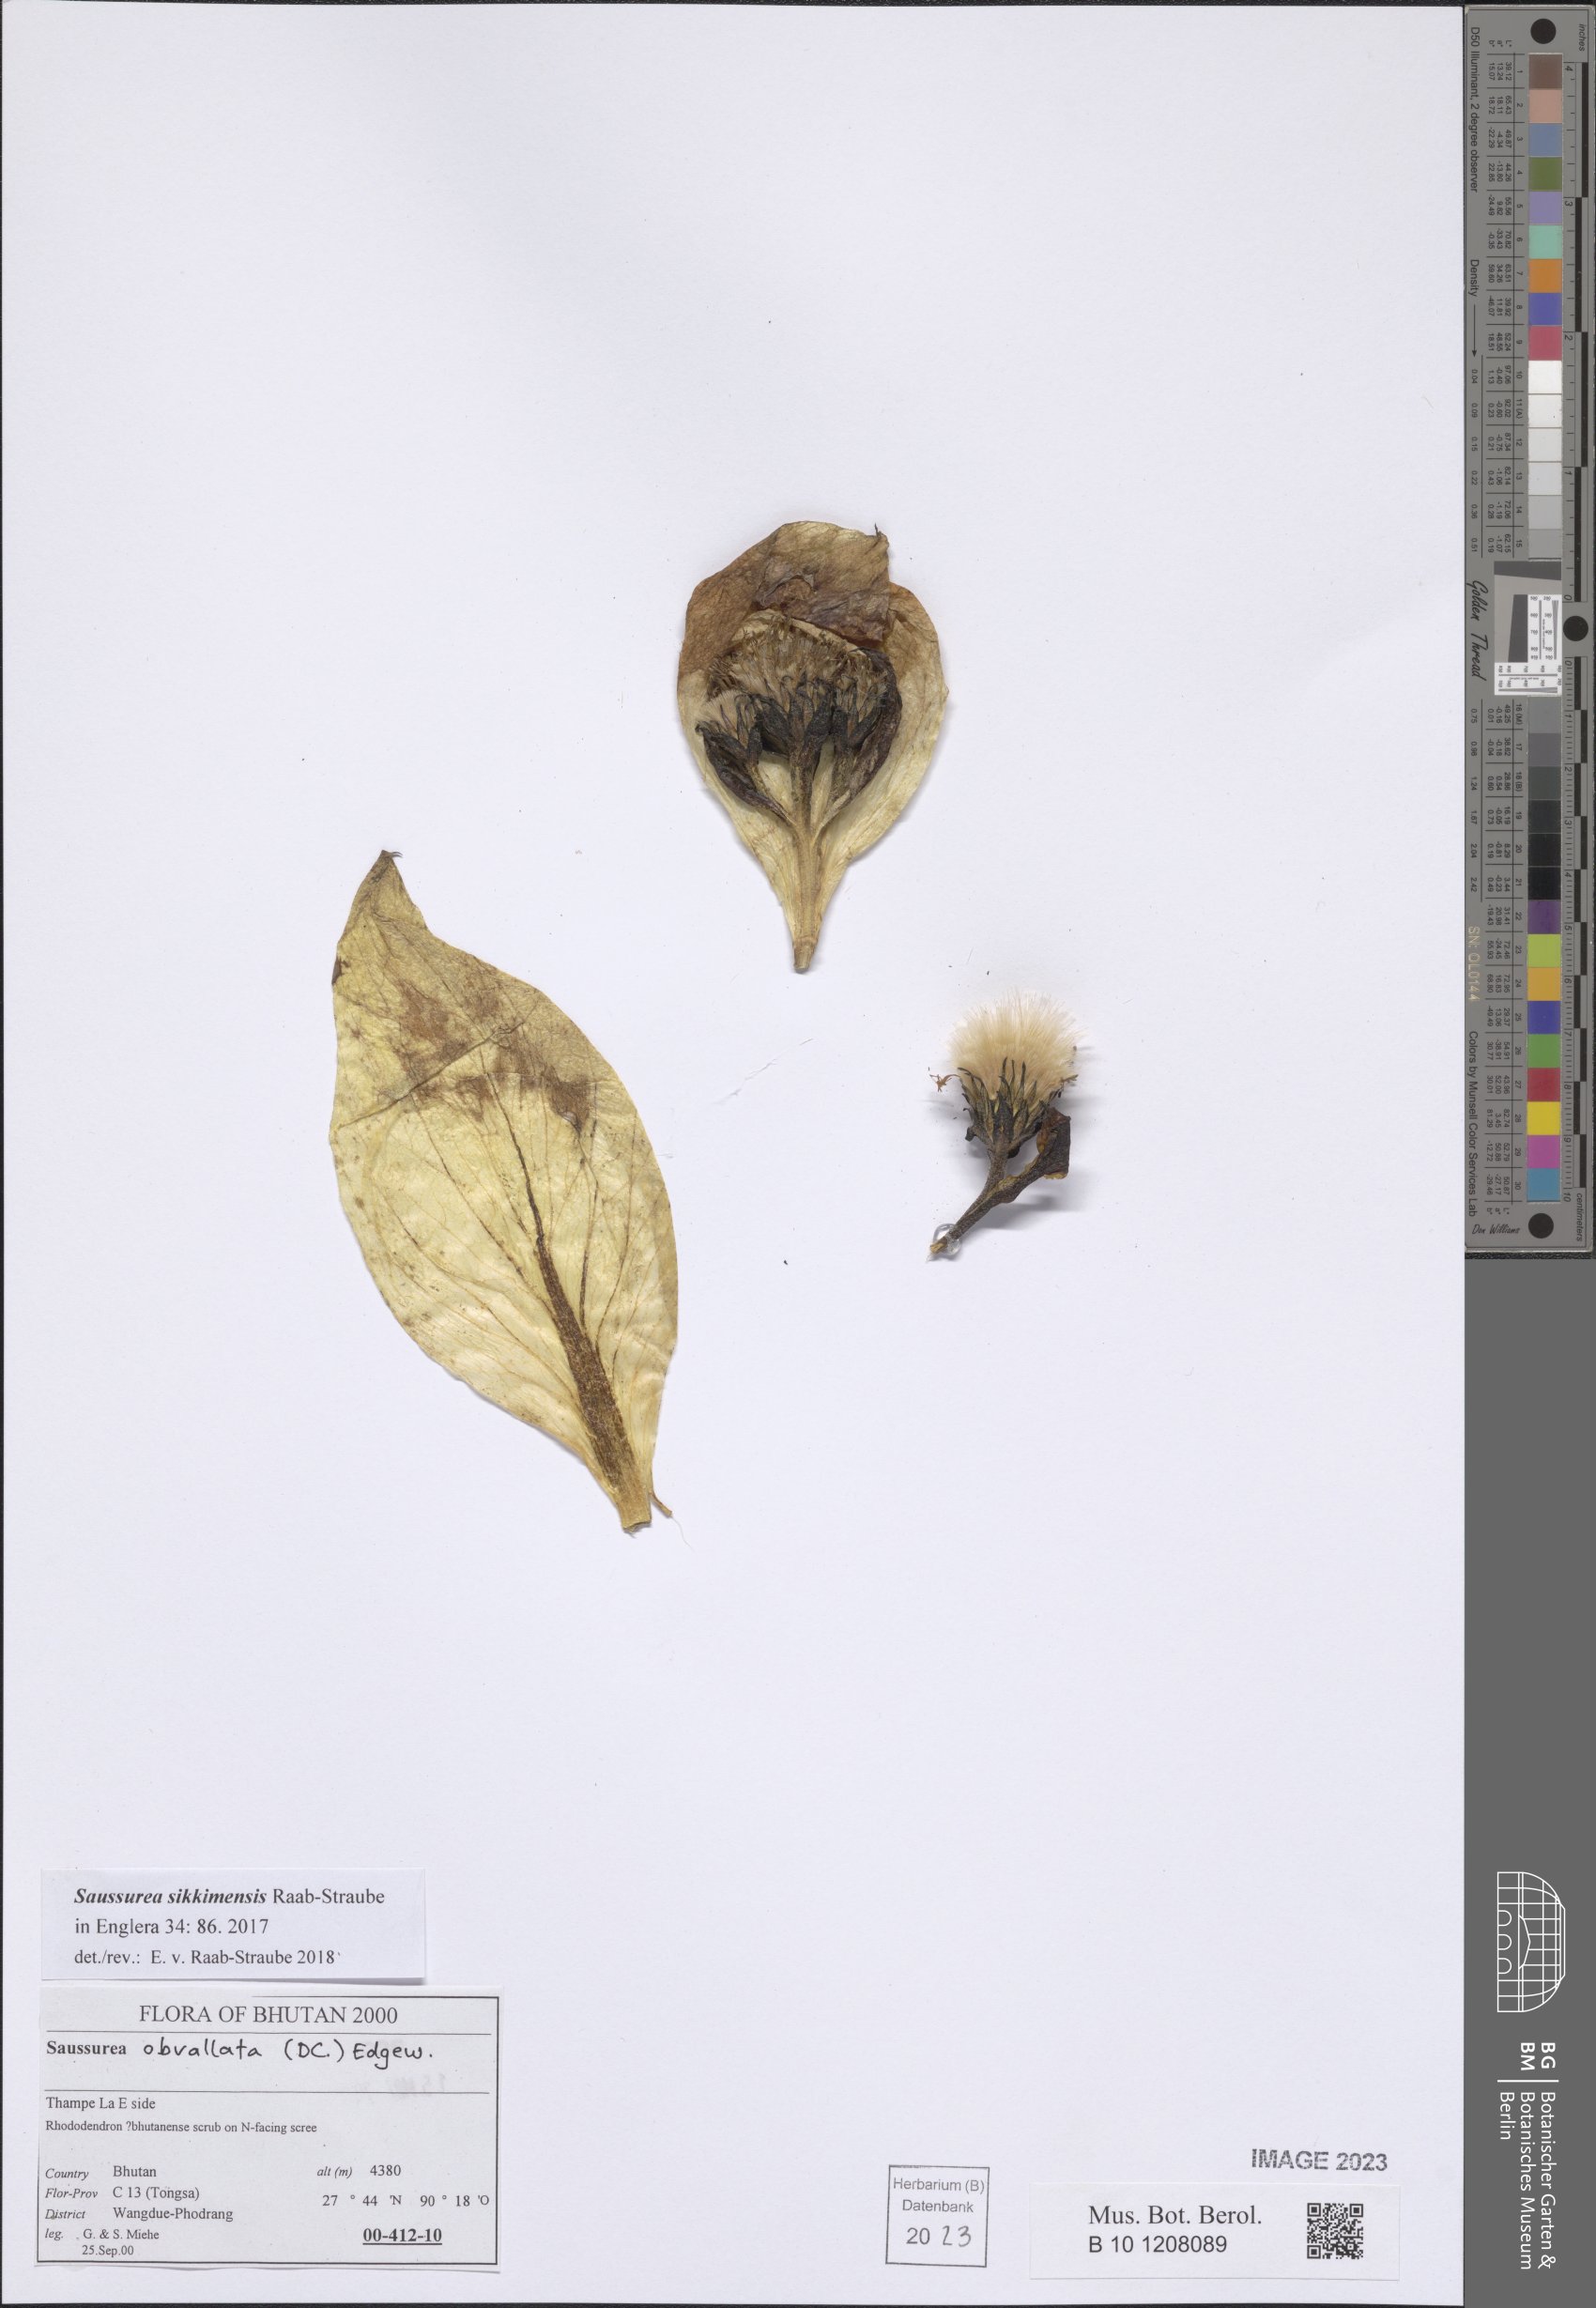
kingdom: Plantae
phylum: Tracheophyta
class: Magnoliopsida
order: Asterales
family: Asteraceae
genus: Saussurea
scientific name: Saussurea sikkimensis
